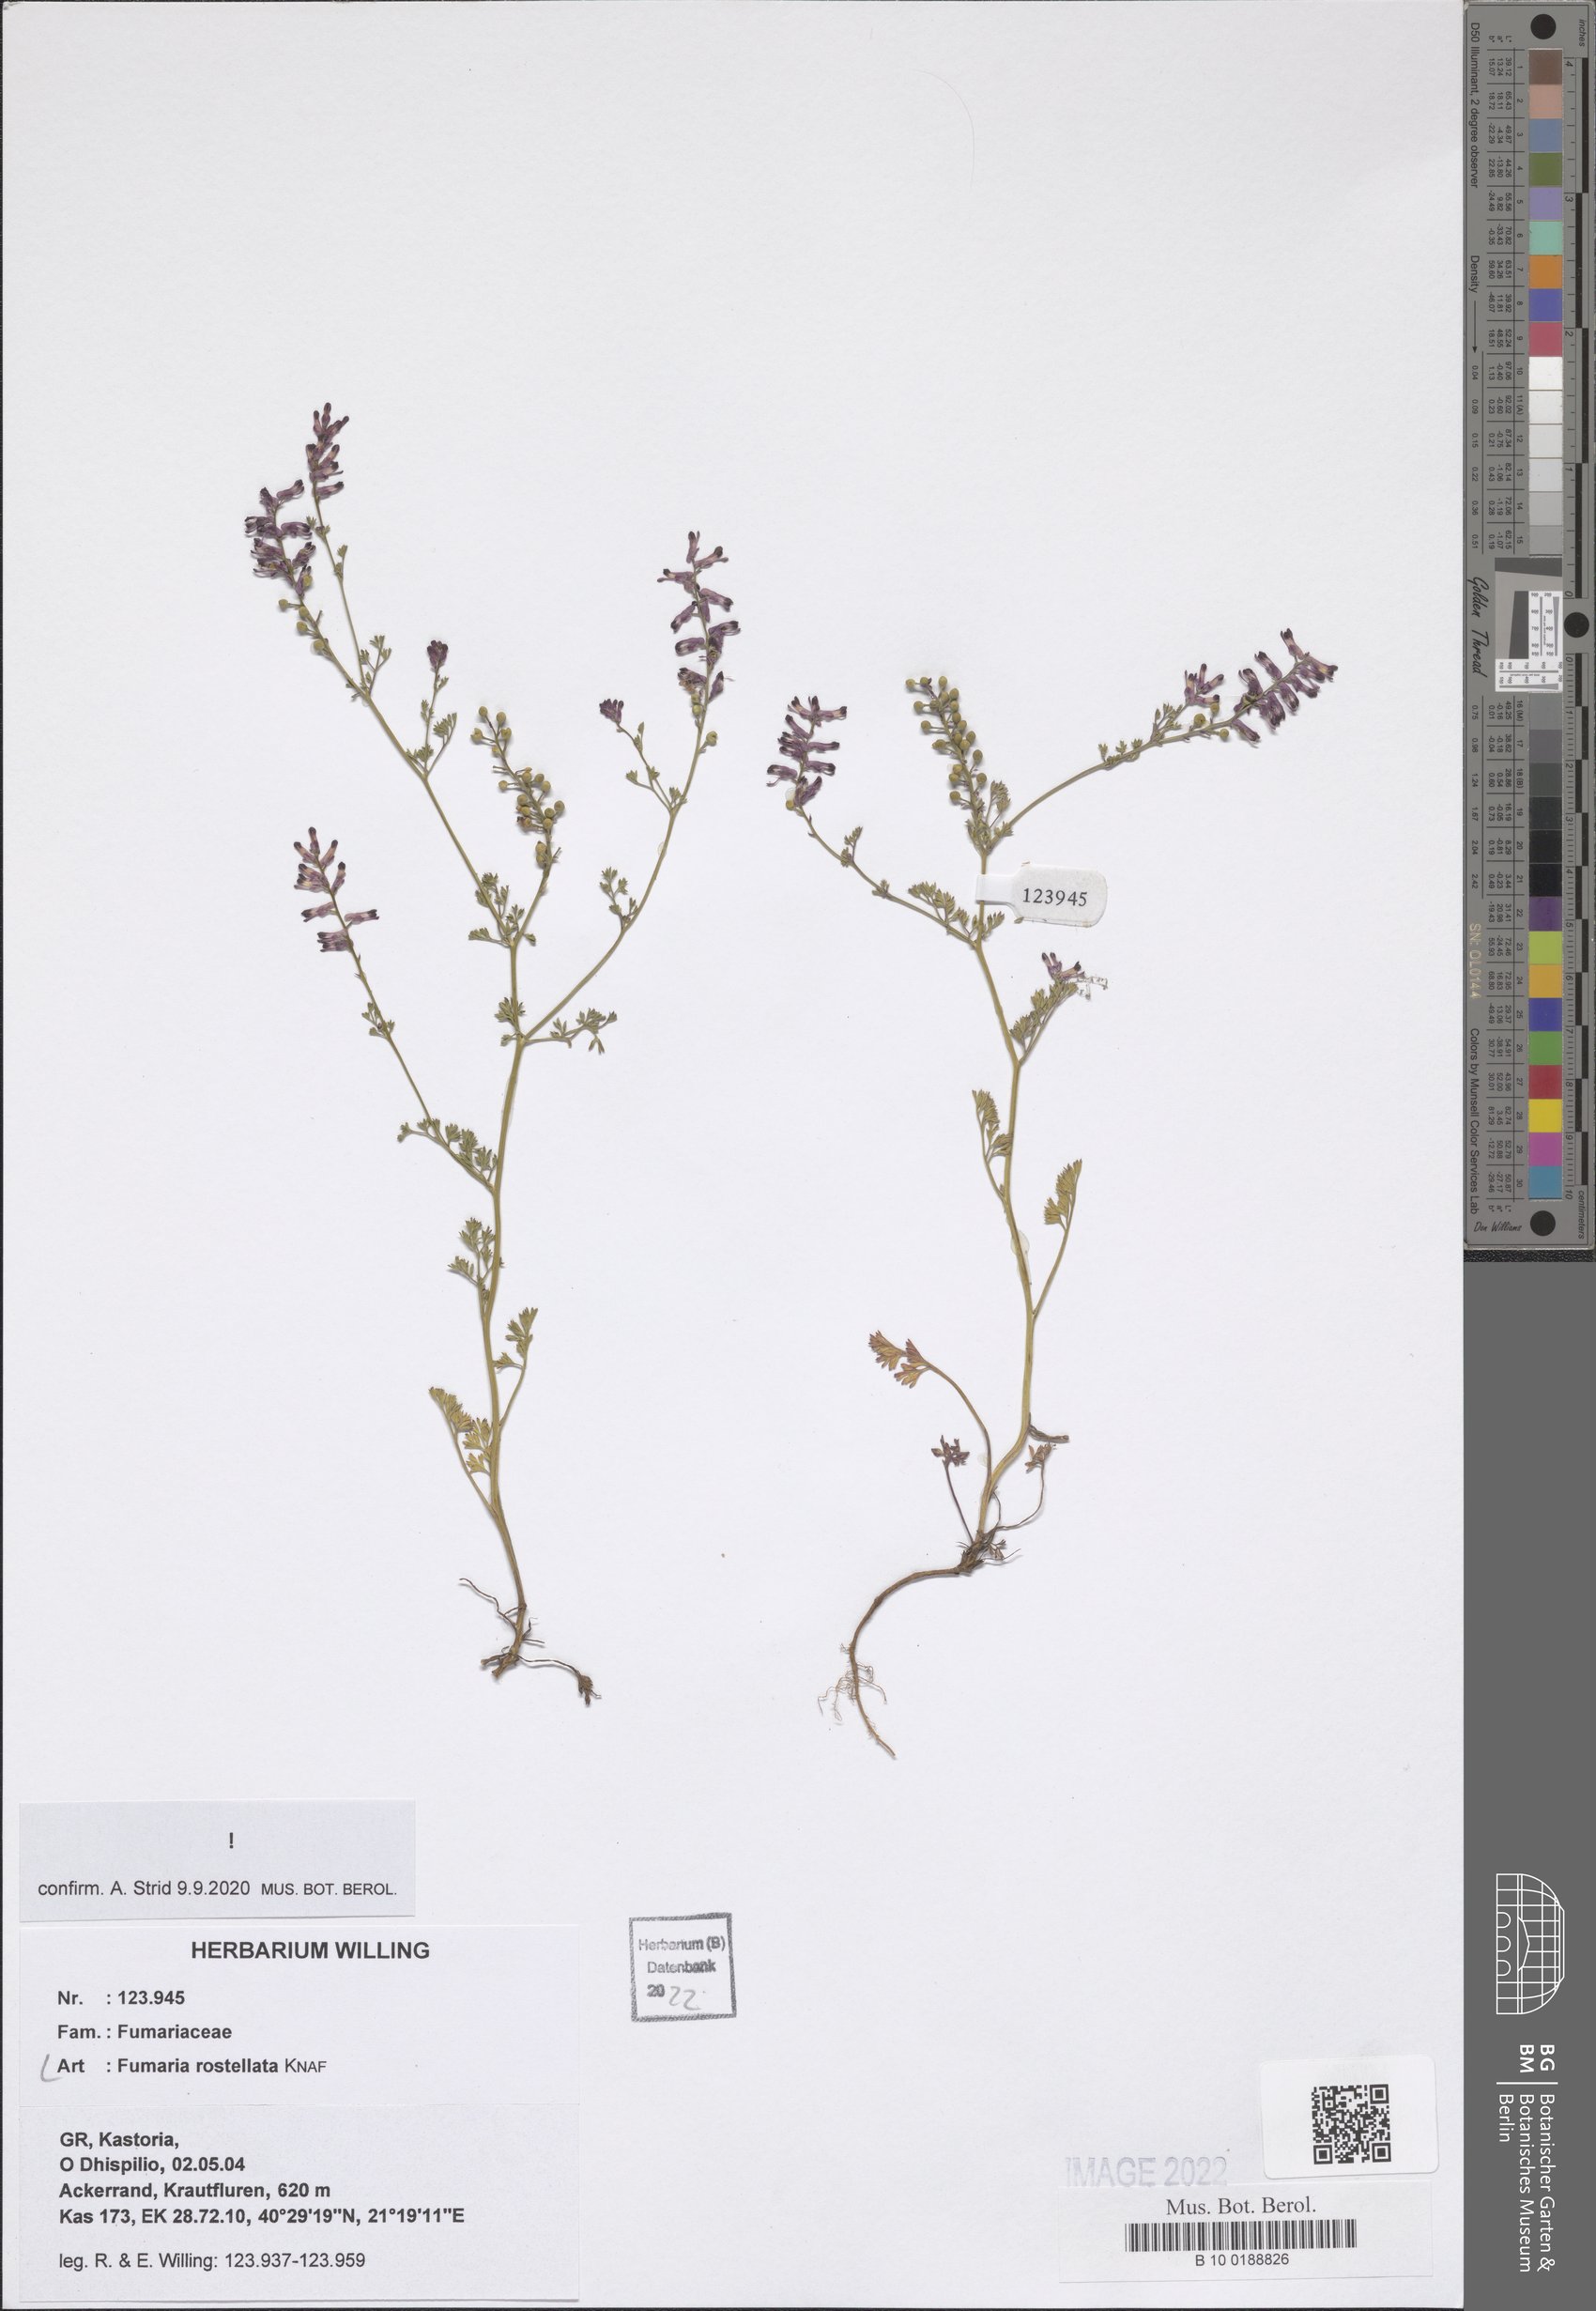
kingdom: Plantae
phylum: Tracheophyta
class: Magnoliopsida
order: Ranunculales
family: Papaveraceae
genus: Fumaria
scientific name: Fumaria rostellata
